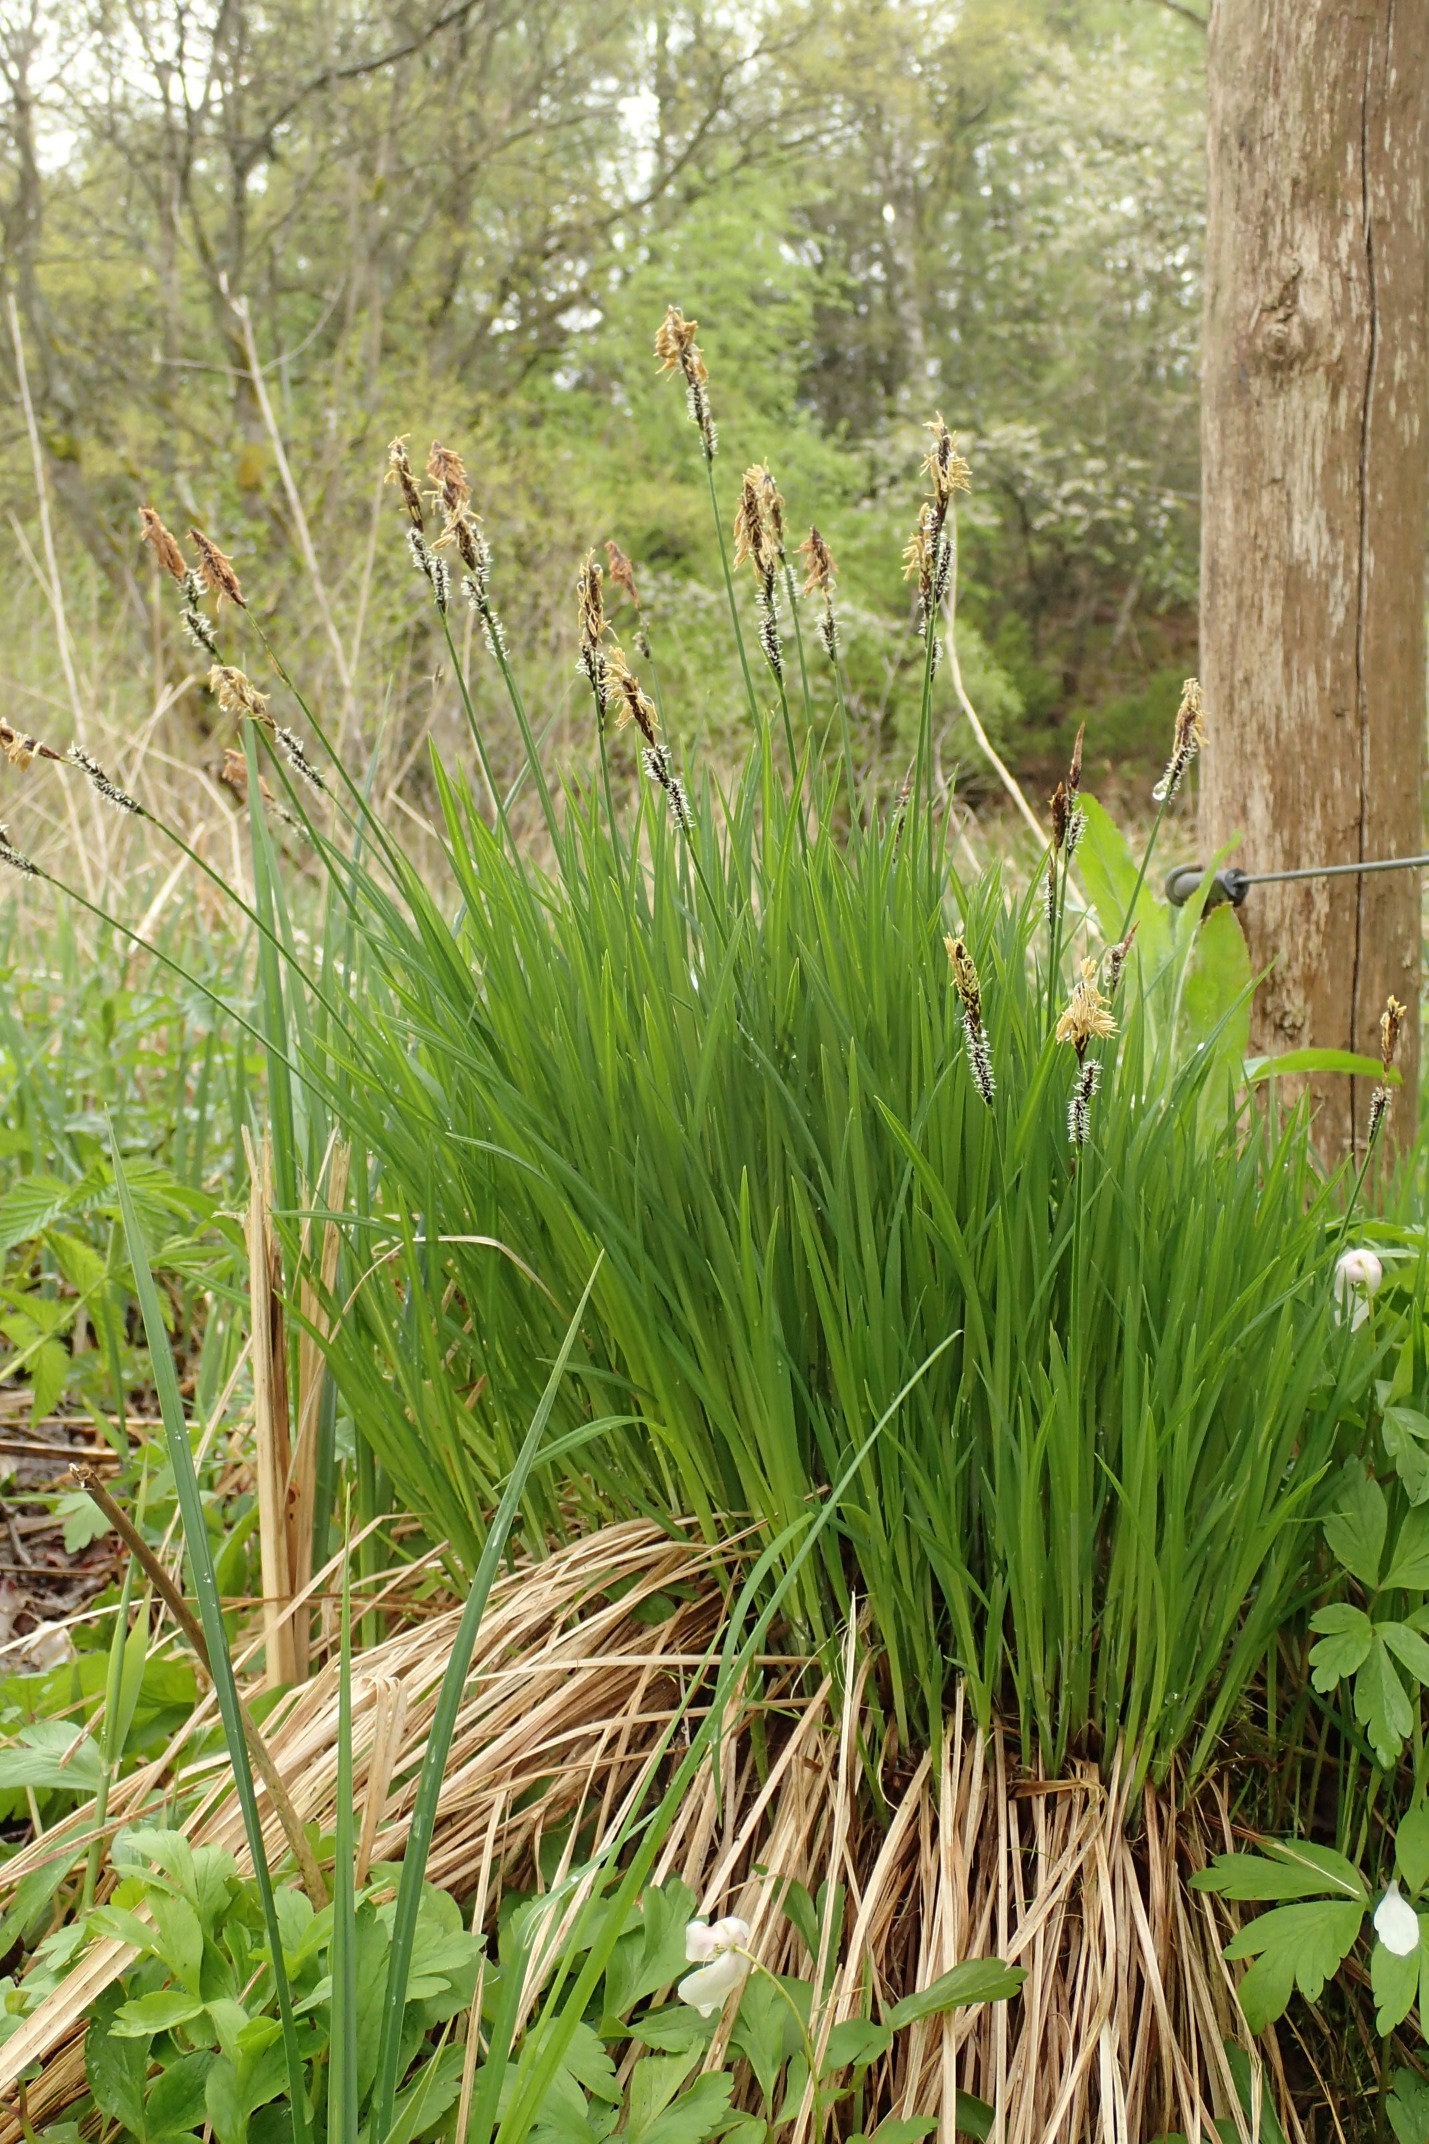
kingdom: Plantae
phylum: Tracheophyta
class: Liliopsida
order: Poales
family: Cyperaceae
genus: Carex
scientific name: Carex cespitosa
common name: Tue-star
